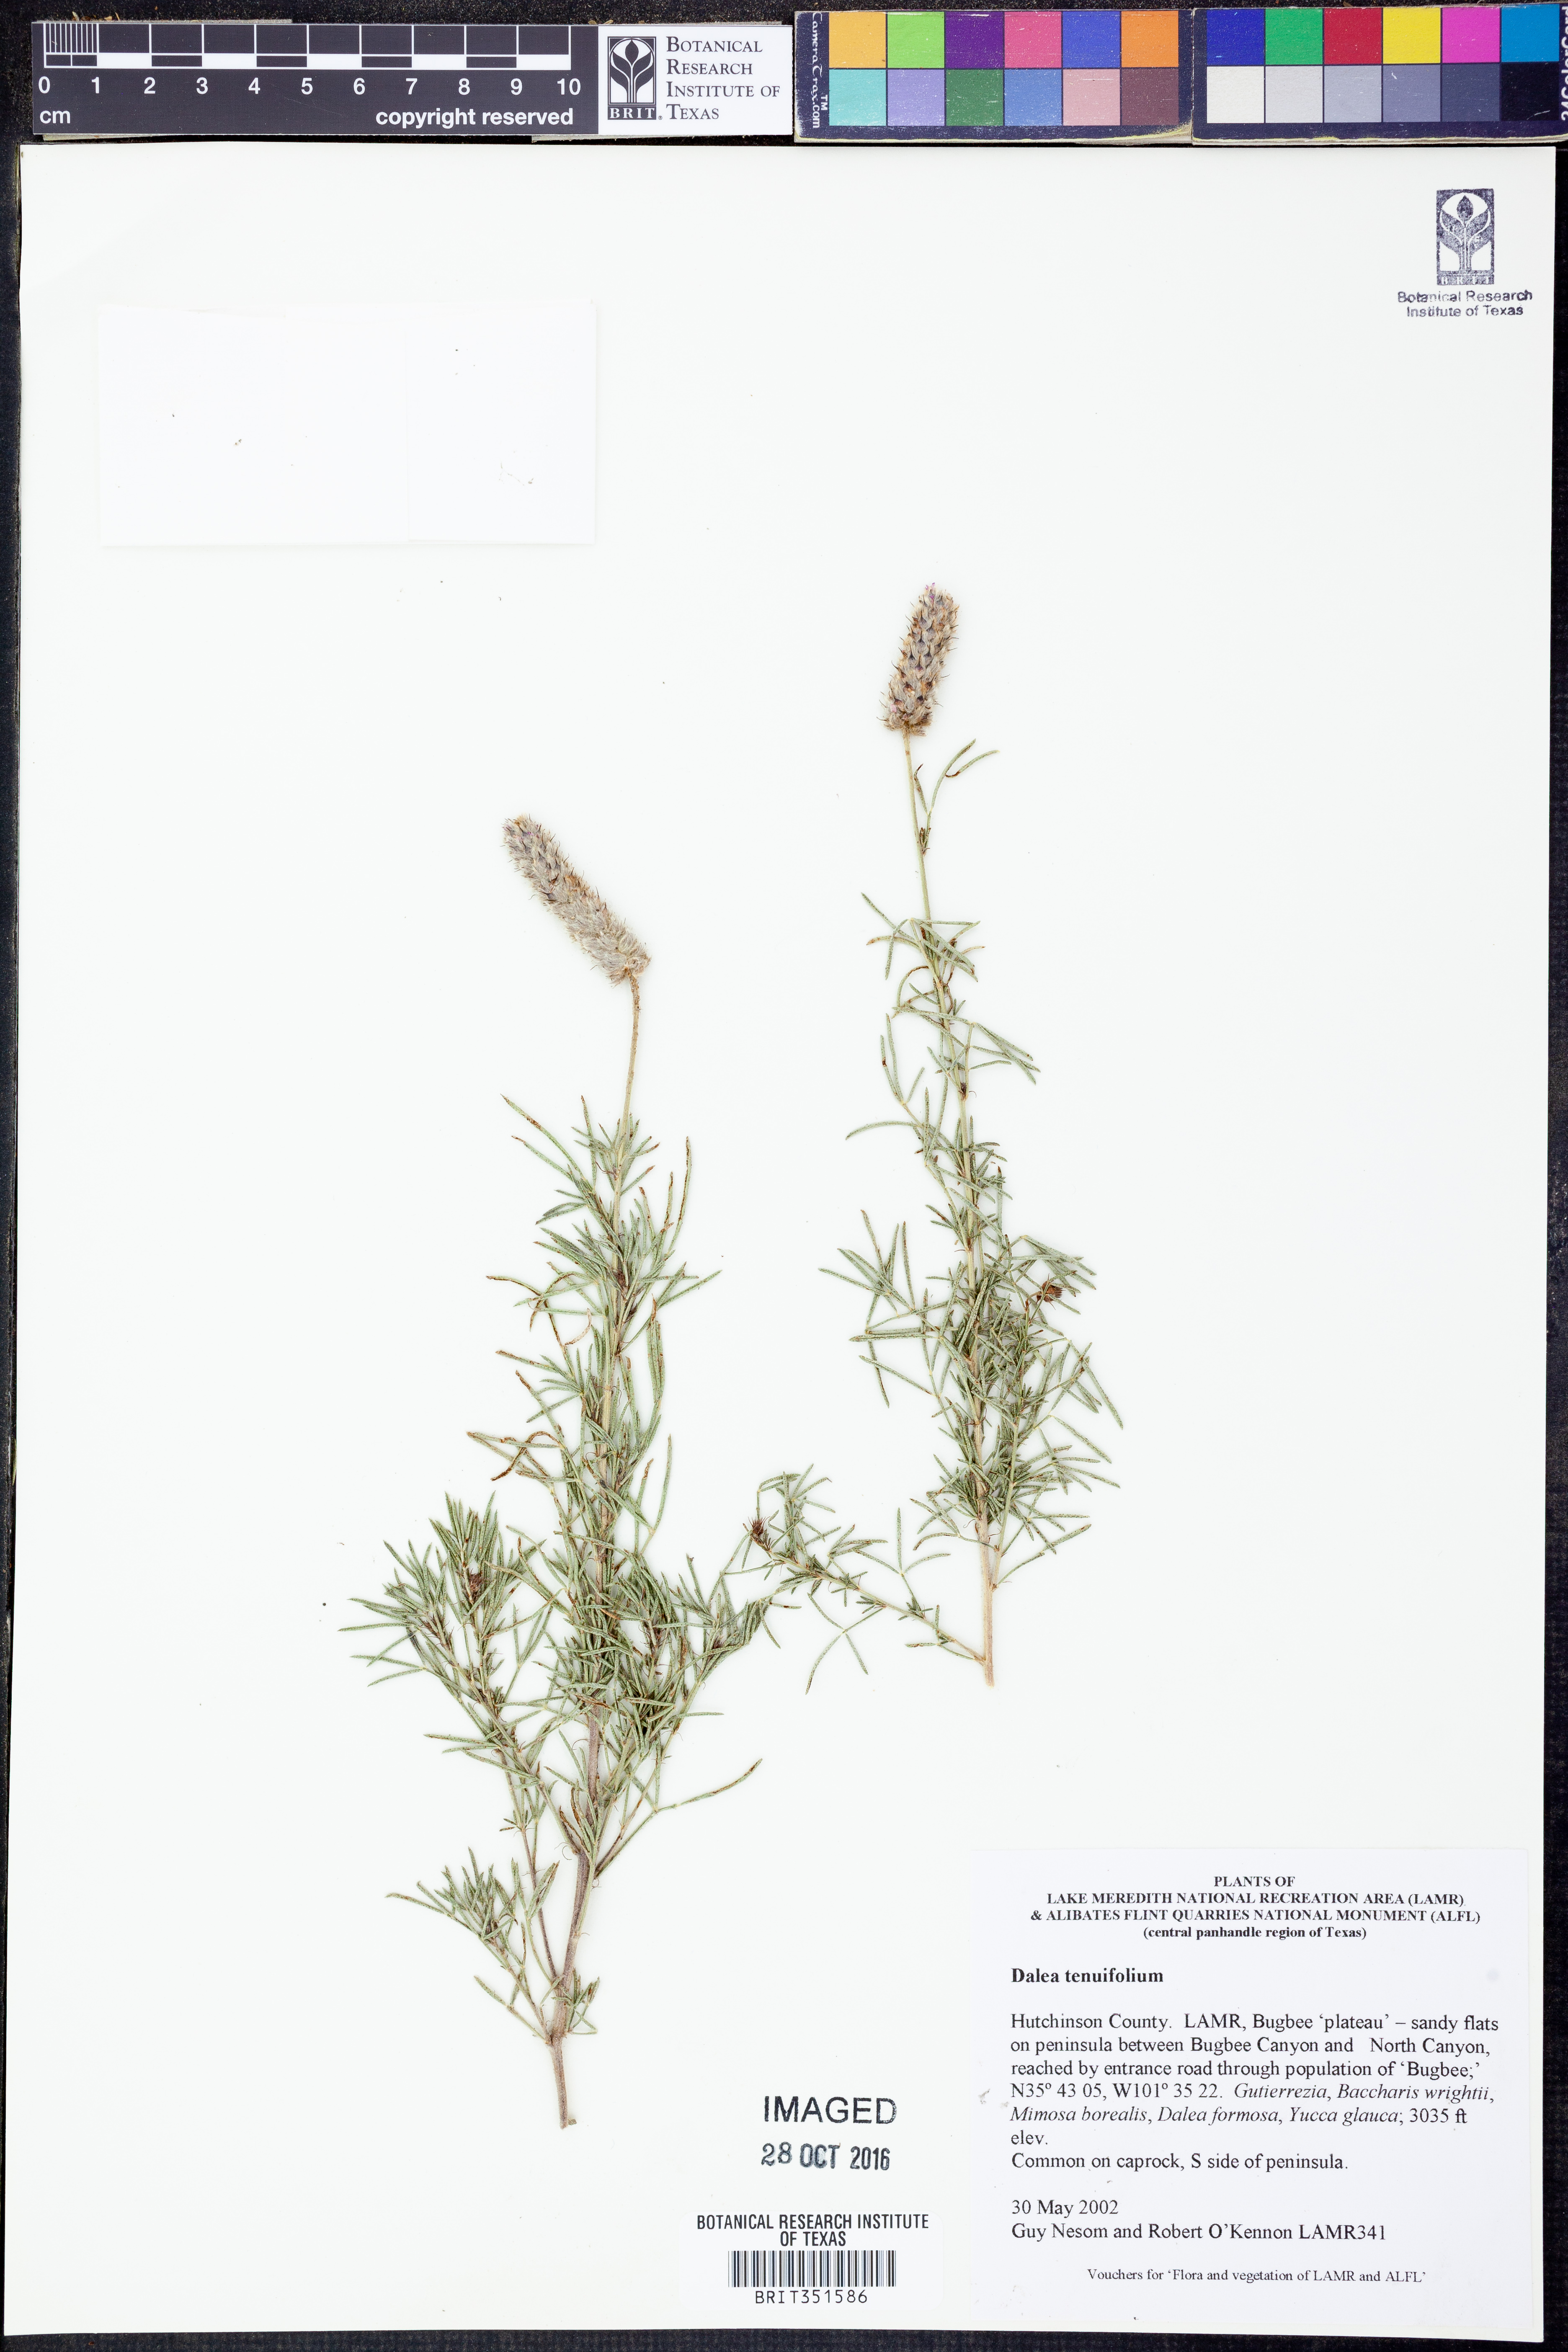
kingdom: Plantae
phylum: Tracheophyta
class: Magnoliopsida
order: Fabales
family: Fabaceae
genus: Dalea
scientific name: Dalea tenuifolia
